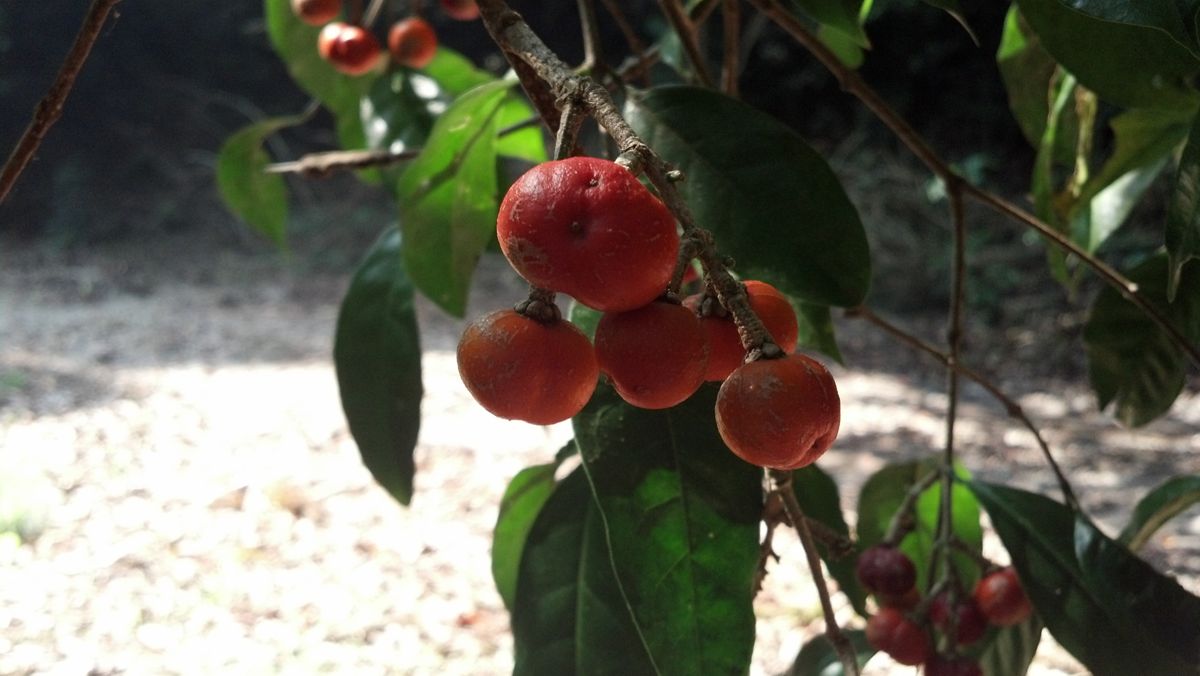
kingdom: Plantae
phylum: Tracheophyta
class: Magnoliopsida
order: Malpighiales
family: Malpighiaceae
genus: Bunchosia
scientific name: Bunchosia lindeniana
